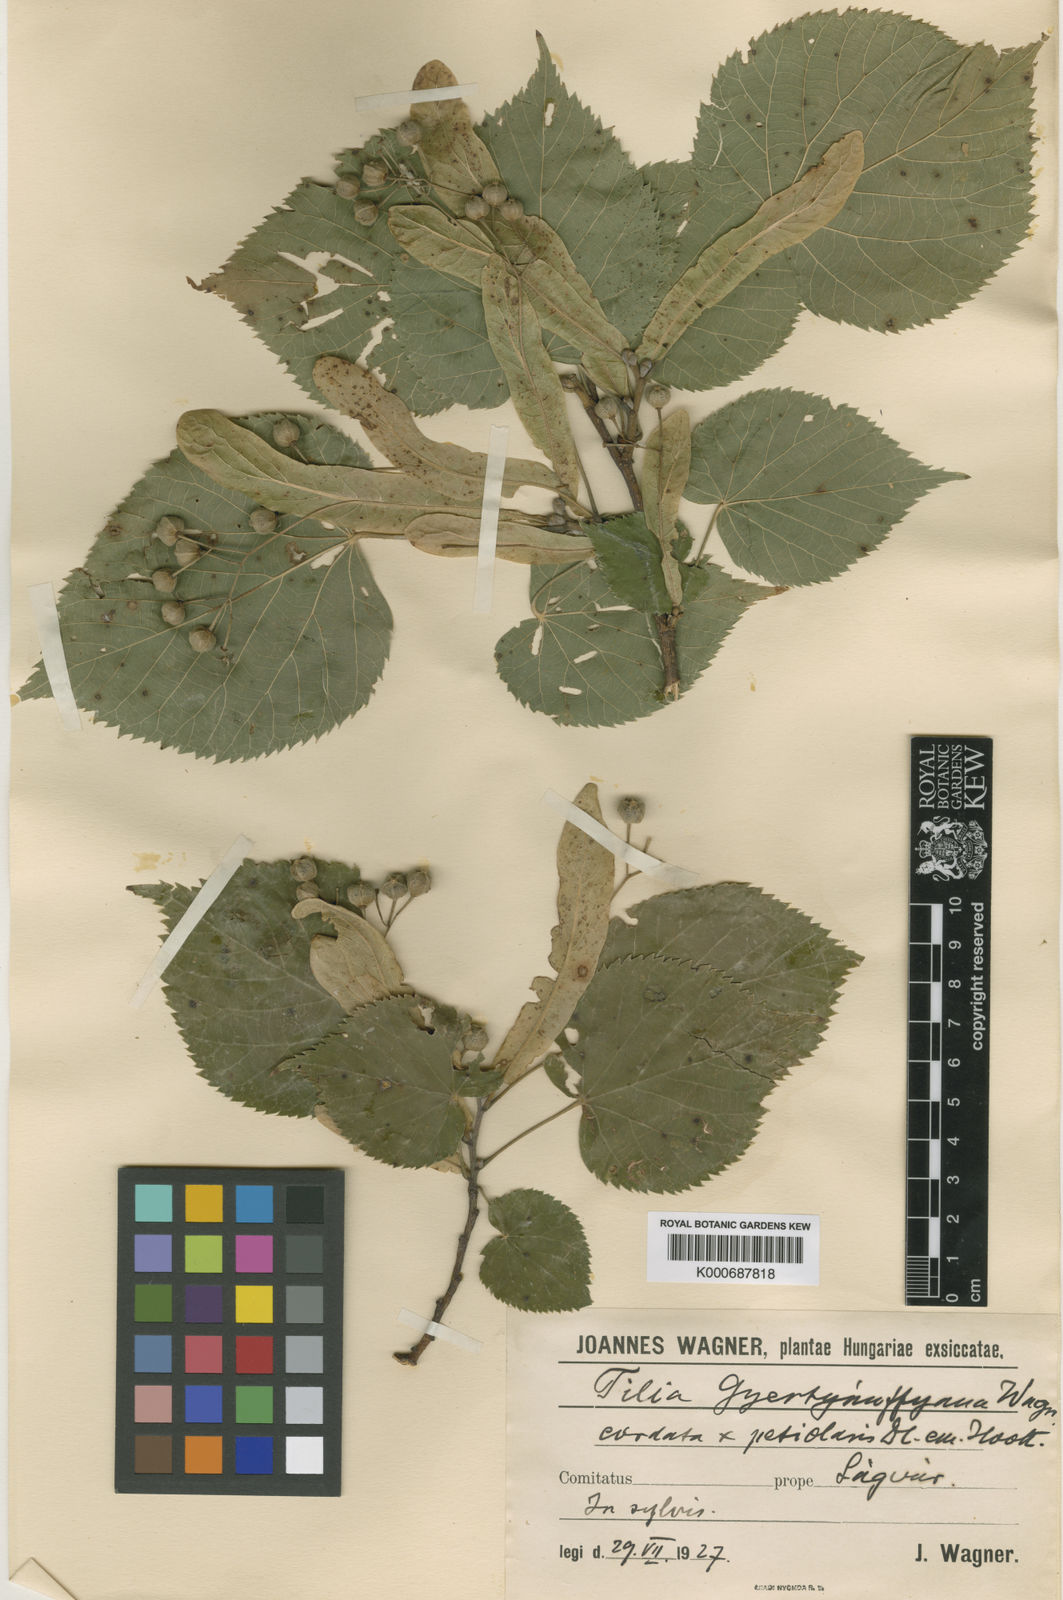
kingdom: Plantae
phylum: Tracheophyta
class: Magnoliopsida
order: Malvales
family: Malvaceae
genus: Tilia
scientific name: Tilia
